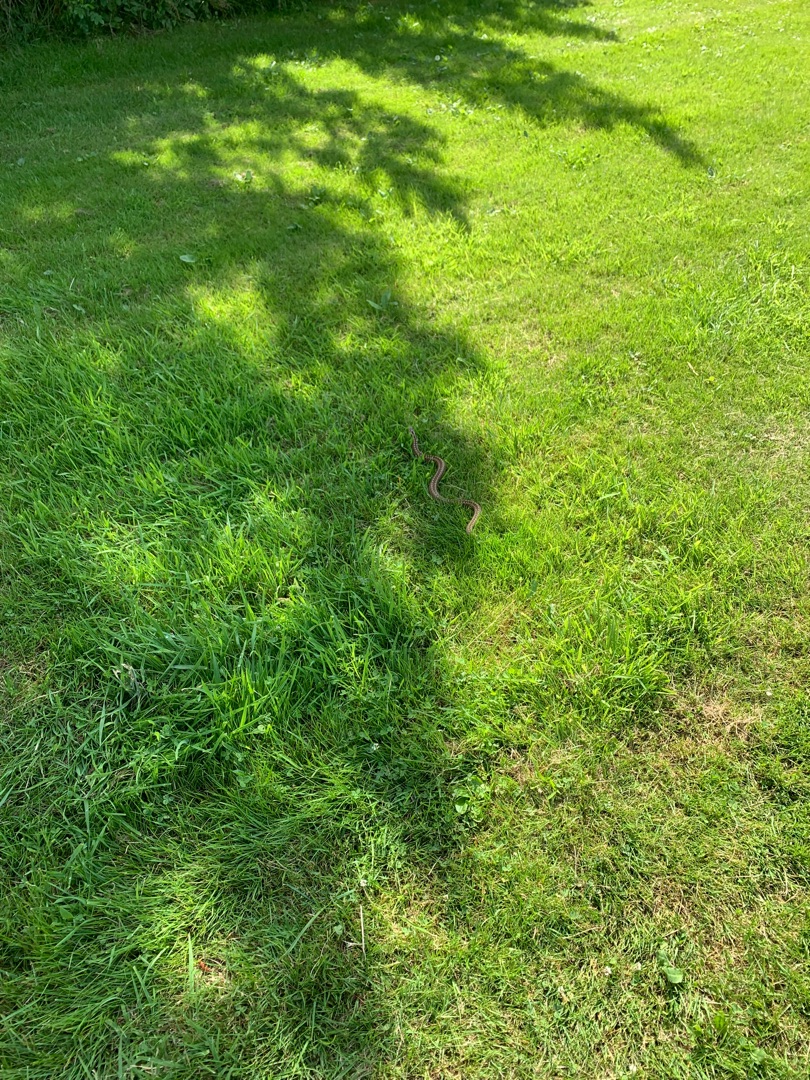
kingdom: Animalia
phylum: Chordata
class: Squamata
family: Viperidae
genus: Vipera
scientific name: Vipera berus
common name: Hugorm
